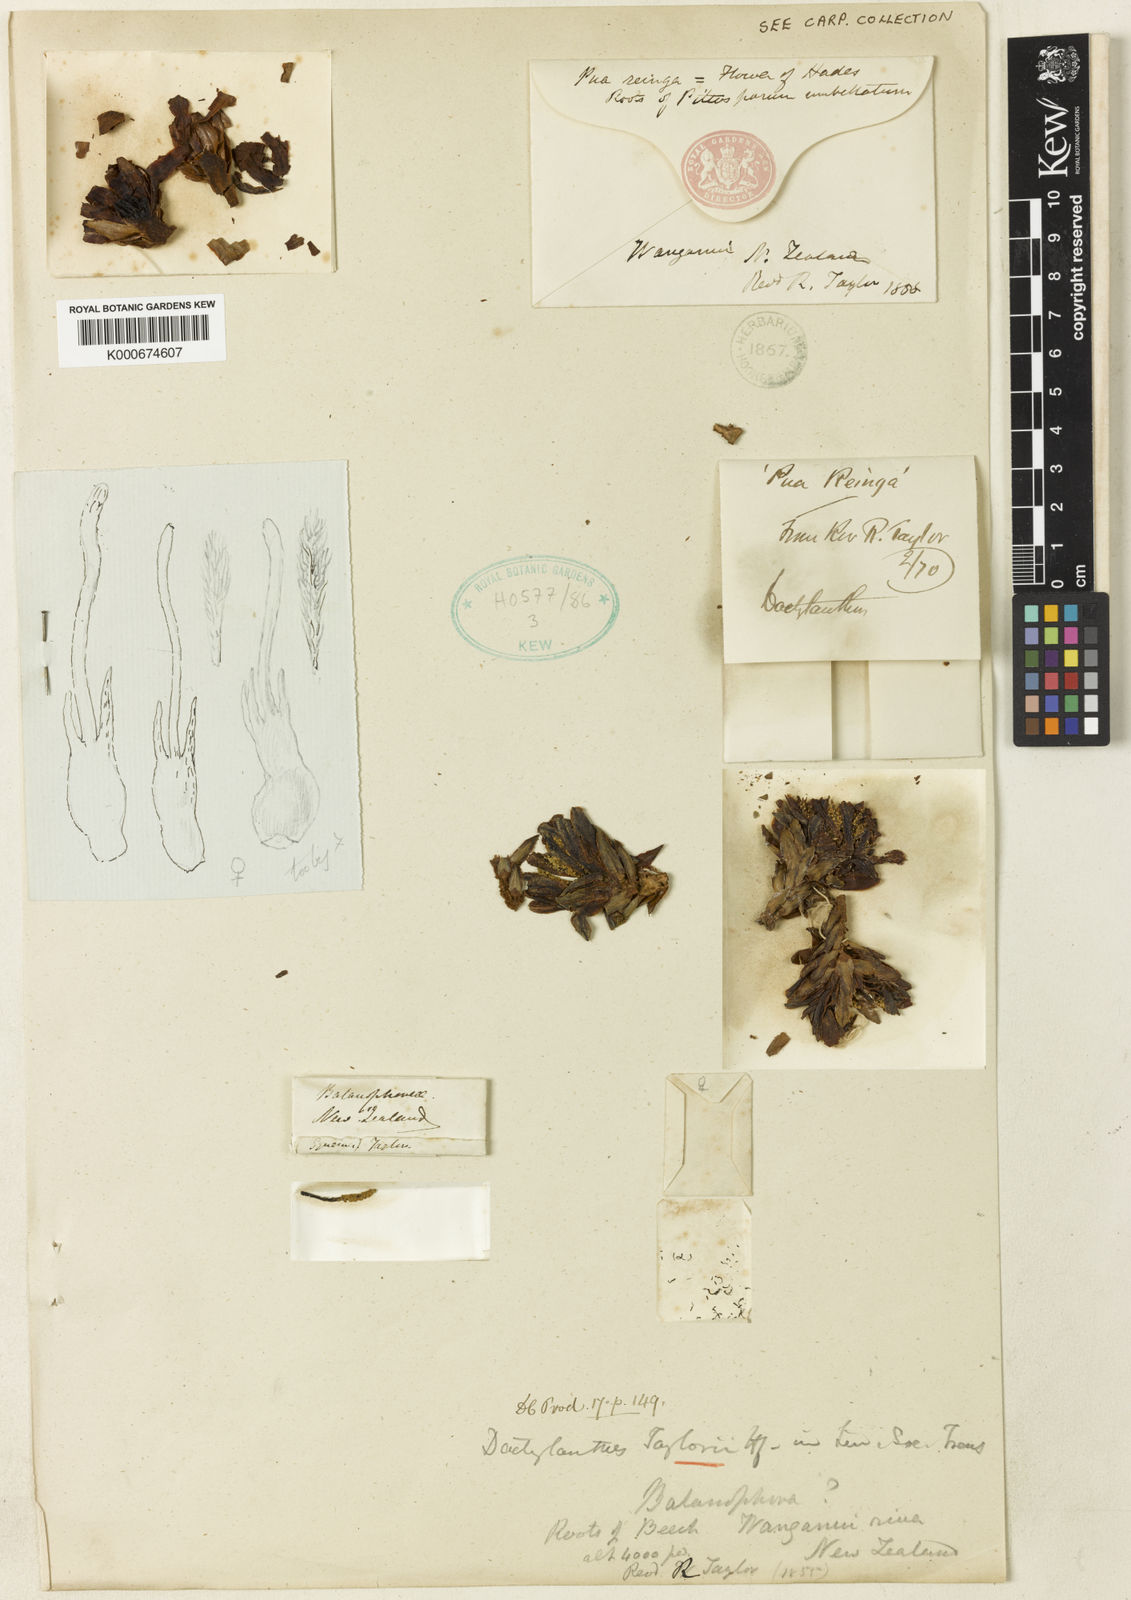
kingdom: Plantae
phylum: Tracheophyta
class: Magnoliopsida
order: Santalales
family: Mystropetalaceae
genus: Dactylanthus
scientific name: Dactylanthus taylorii
